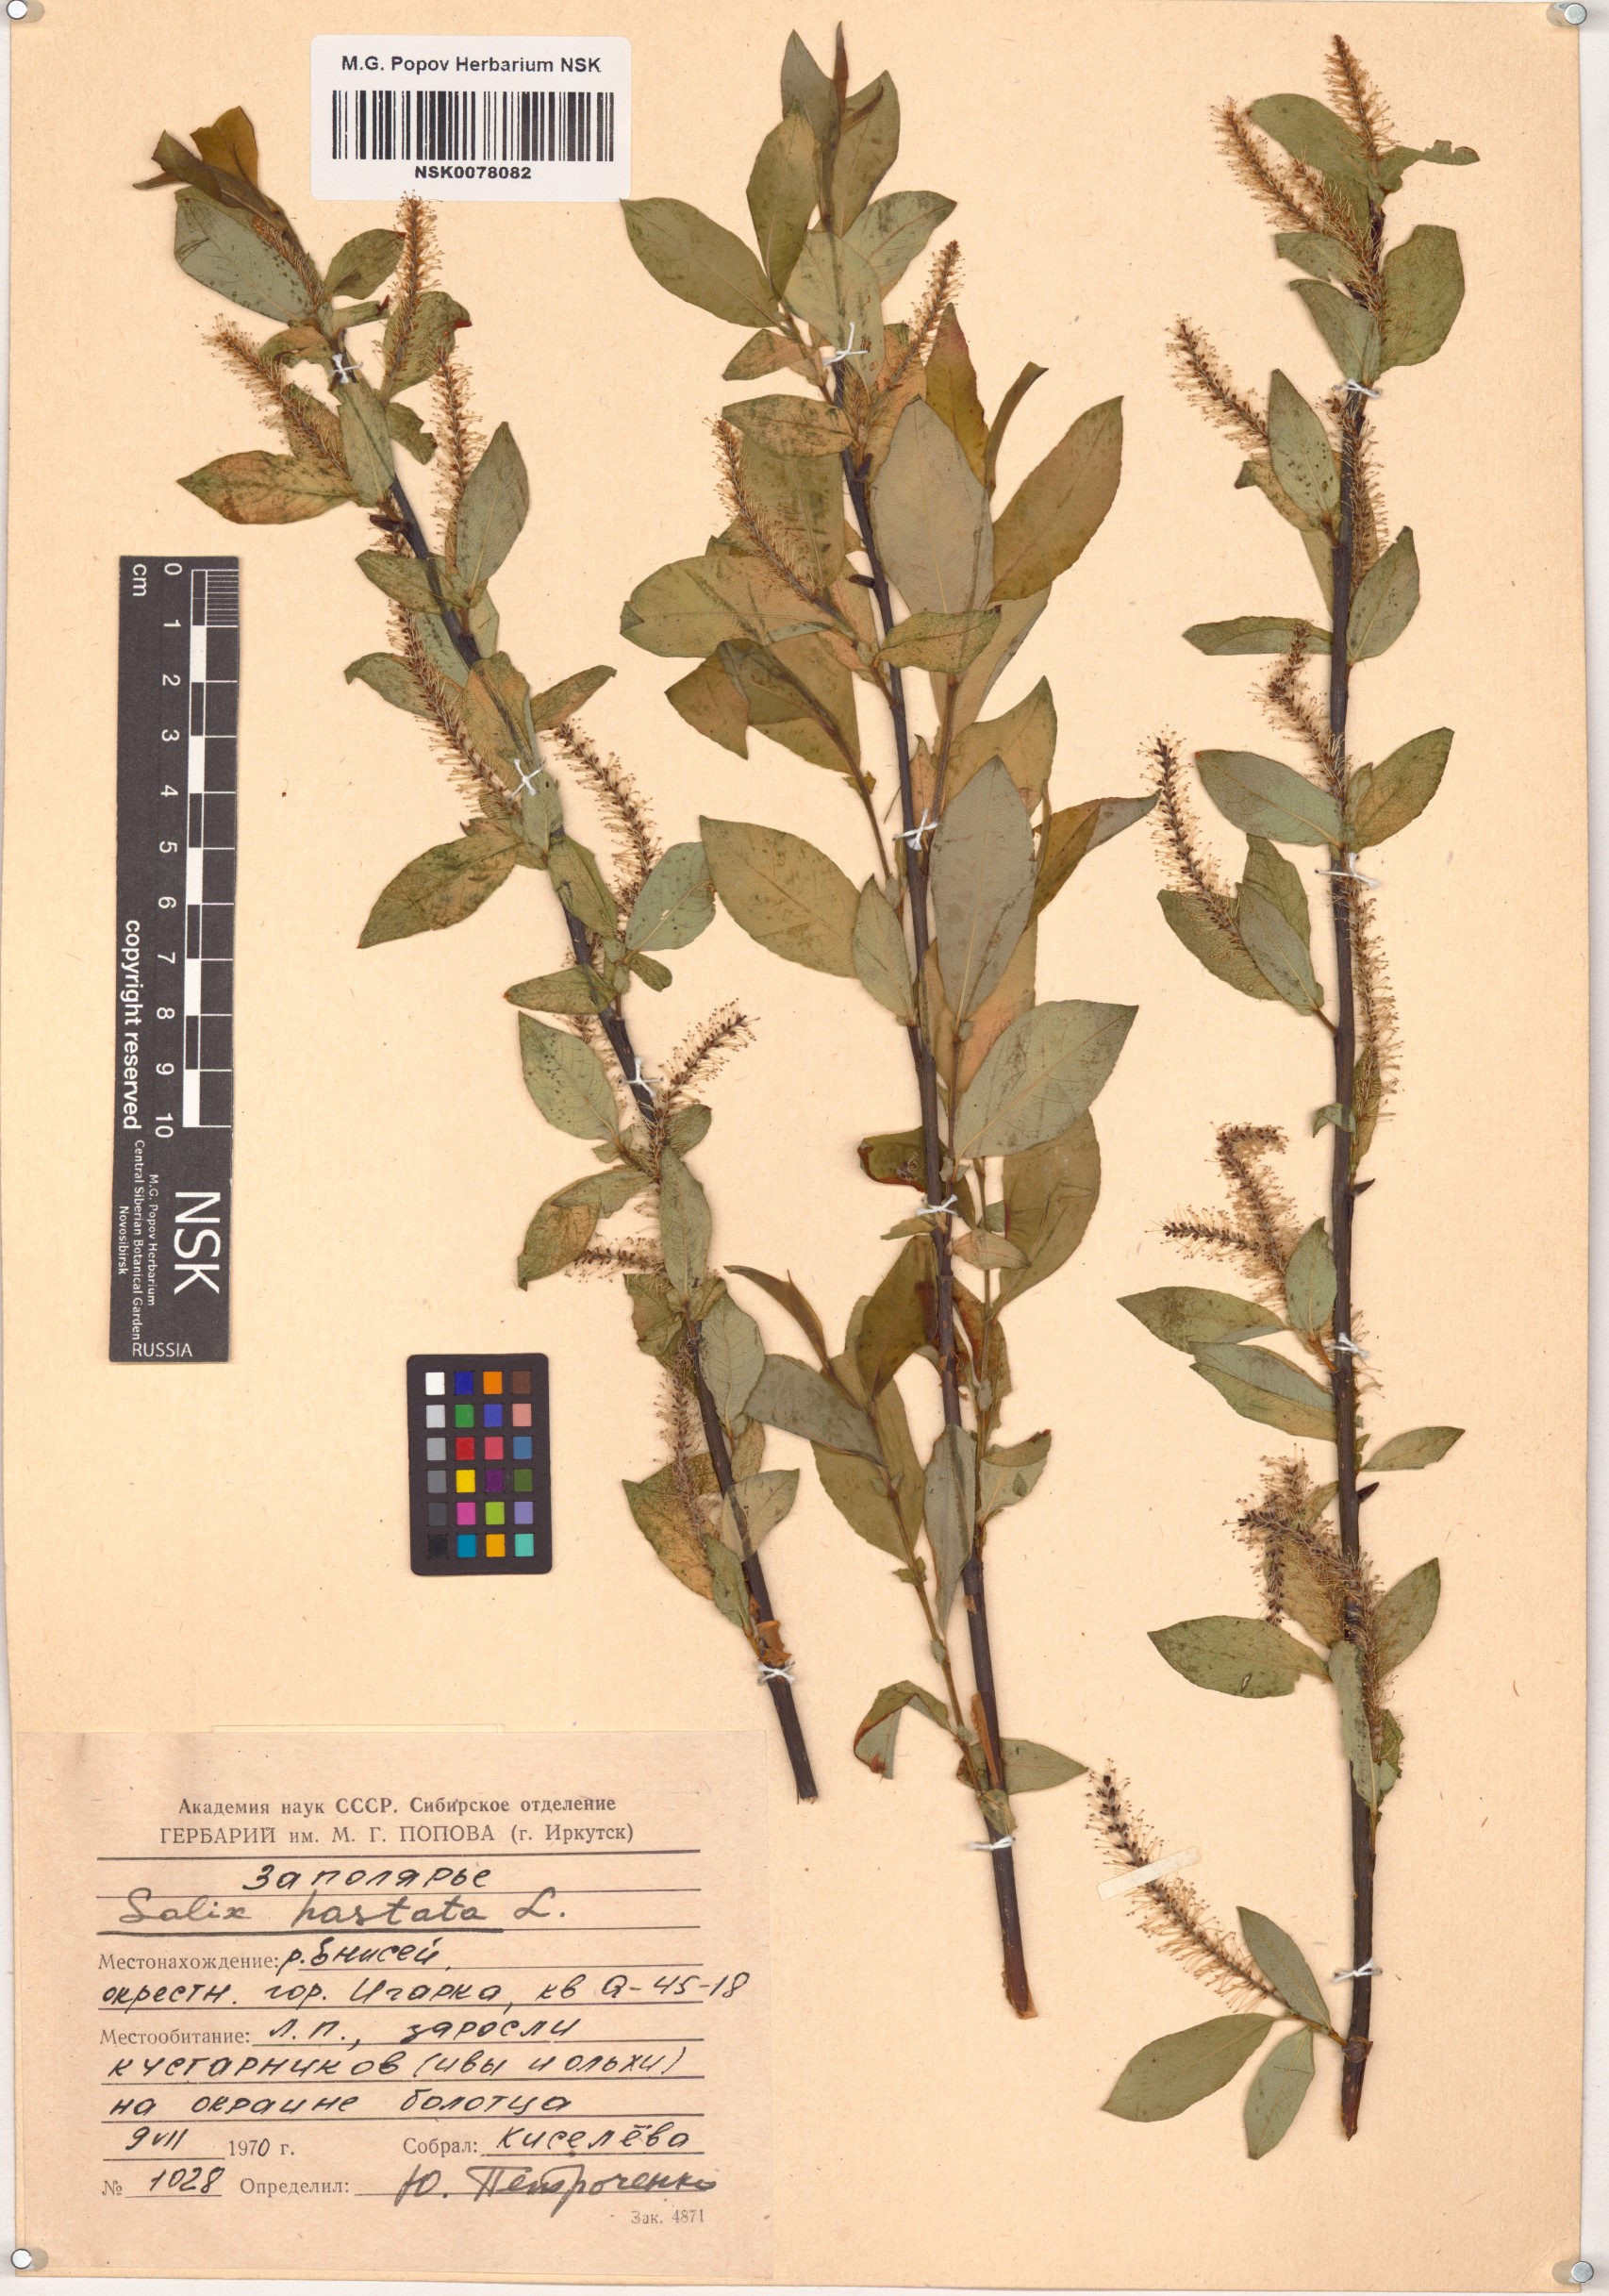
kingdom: Plantae
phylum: Tracheophyta
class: Magnoliopsida
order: Malpighiales
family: Salicaceae
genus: Salix
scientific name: Salix hastata
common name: Halberd willow
